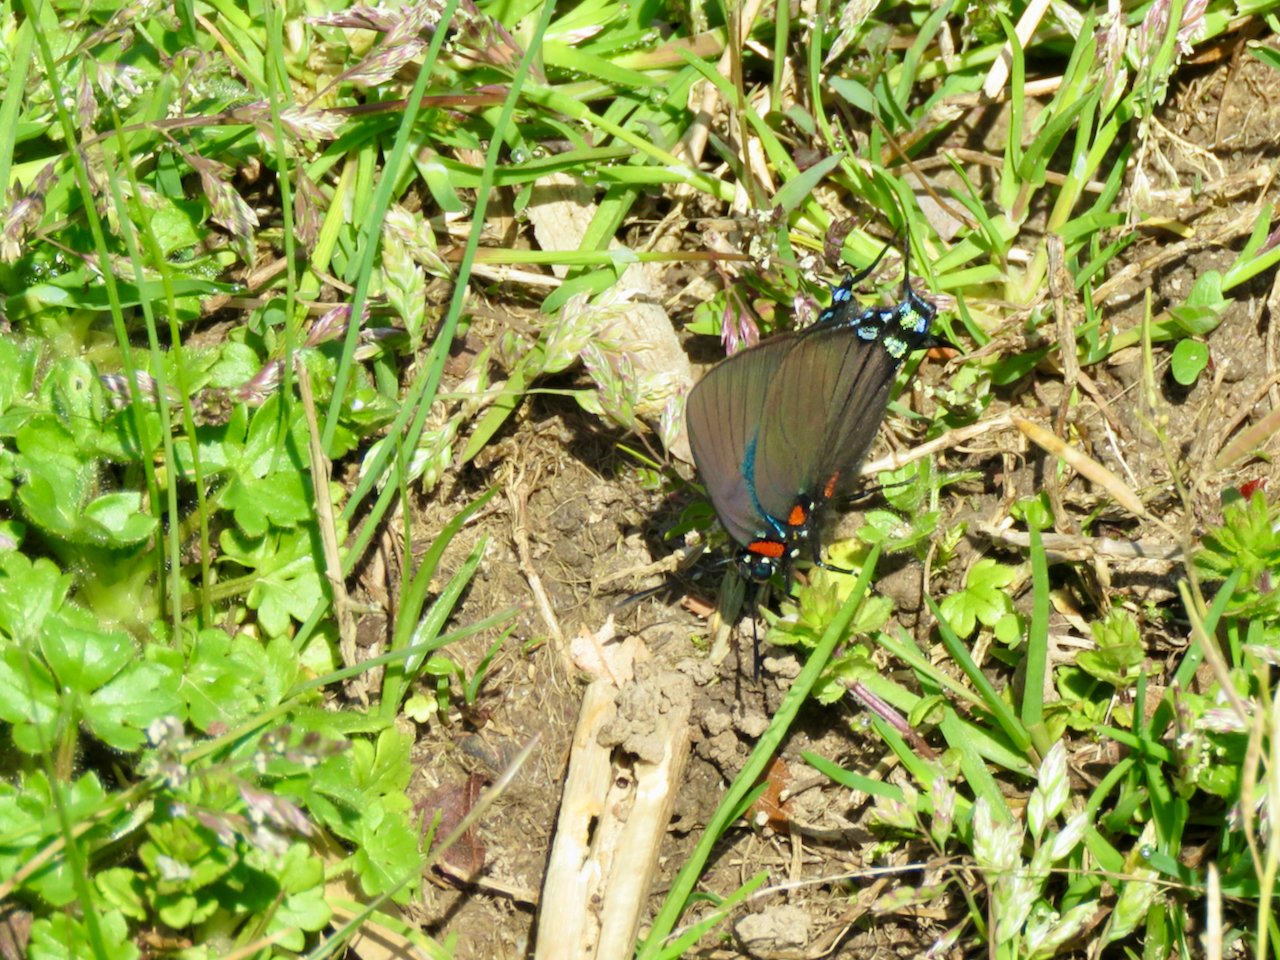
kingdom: Animalia
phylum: Arthropoda
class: Insecta
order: Lepidoptera
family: Lycaenidae
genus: Atlides
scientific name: Atlides halesus
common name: Great Purple Hairstreak
